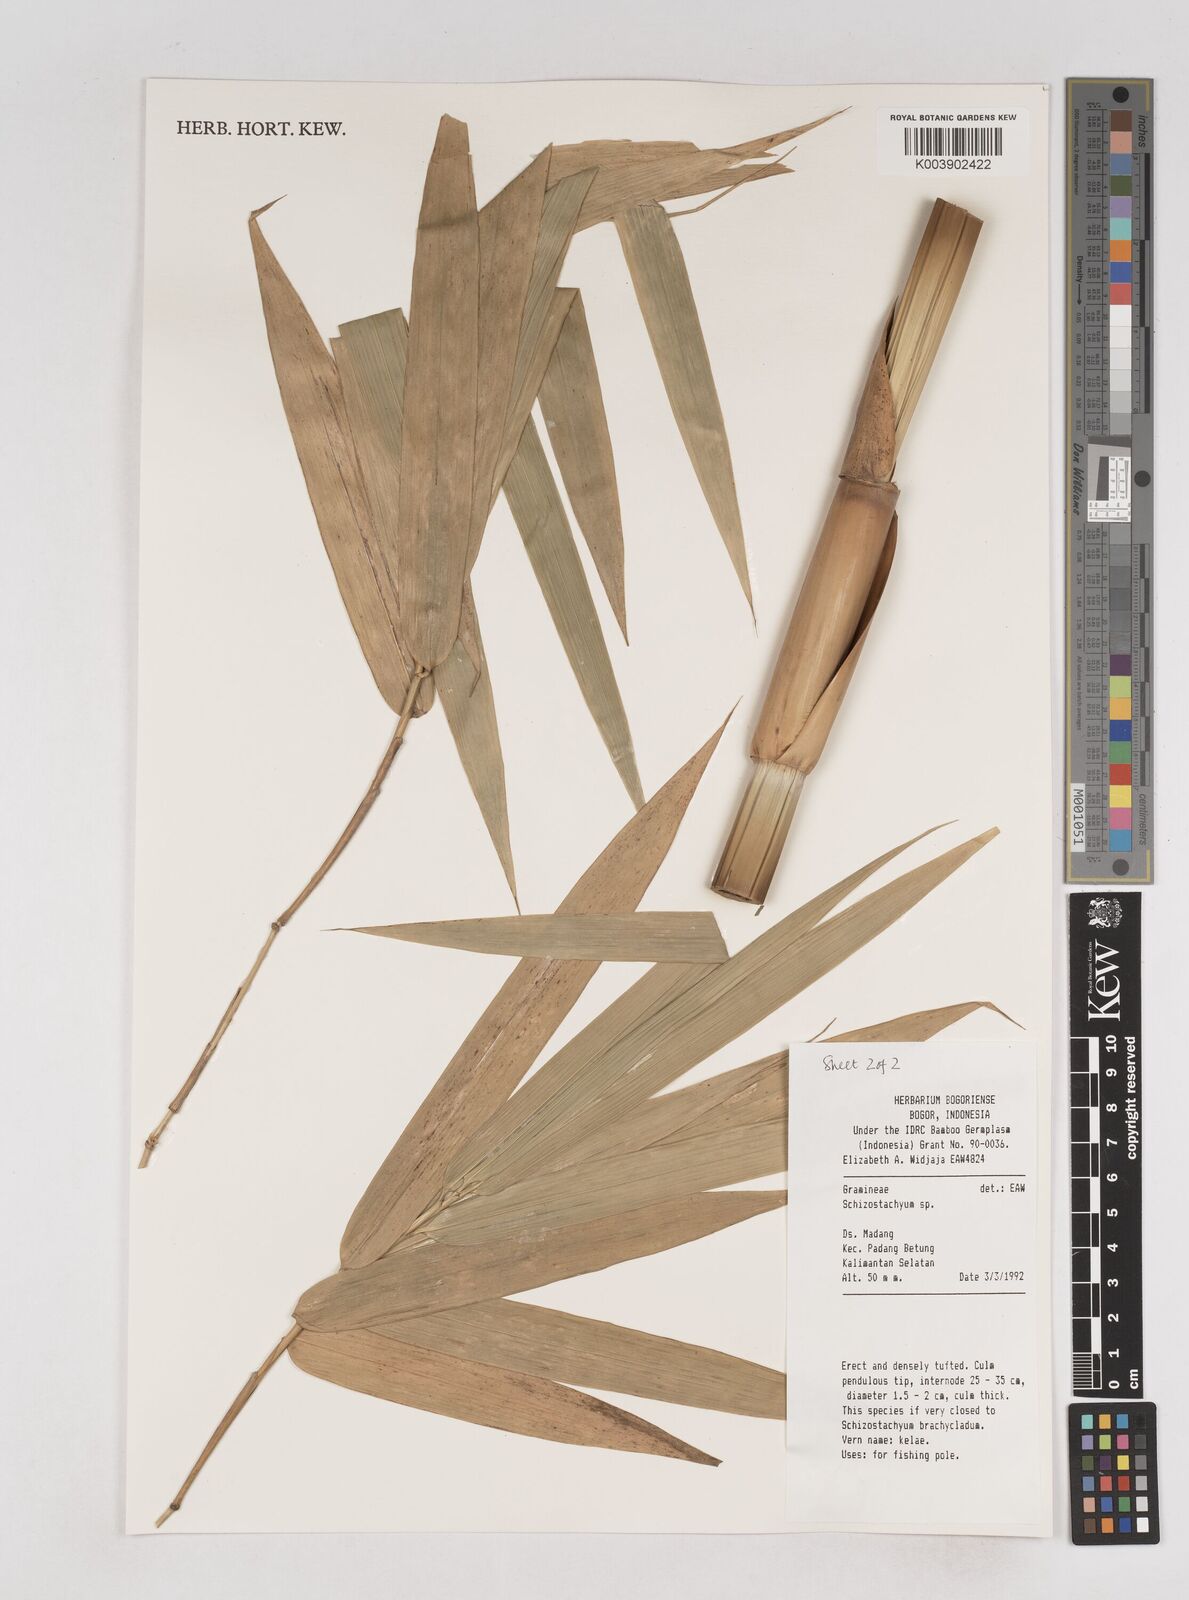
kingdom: Plantae
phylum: Tracheophyta
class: Liliopsida
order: Poales
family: Poaceae
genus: Schizostachyum
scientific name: Schizostachyum
